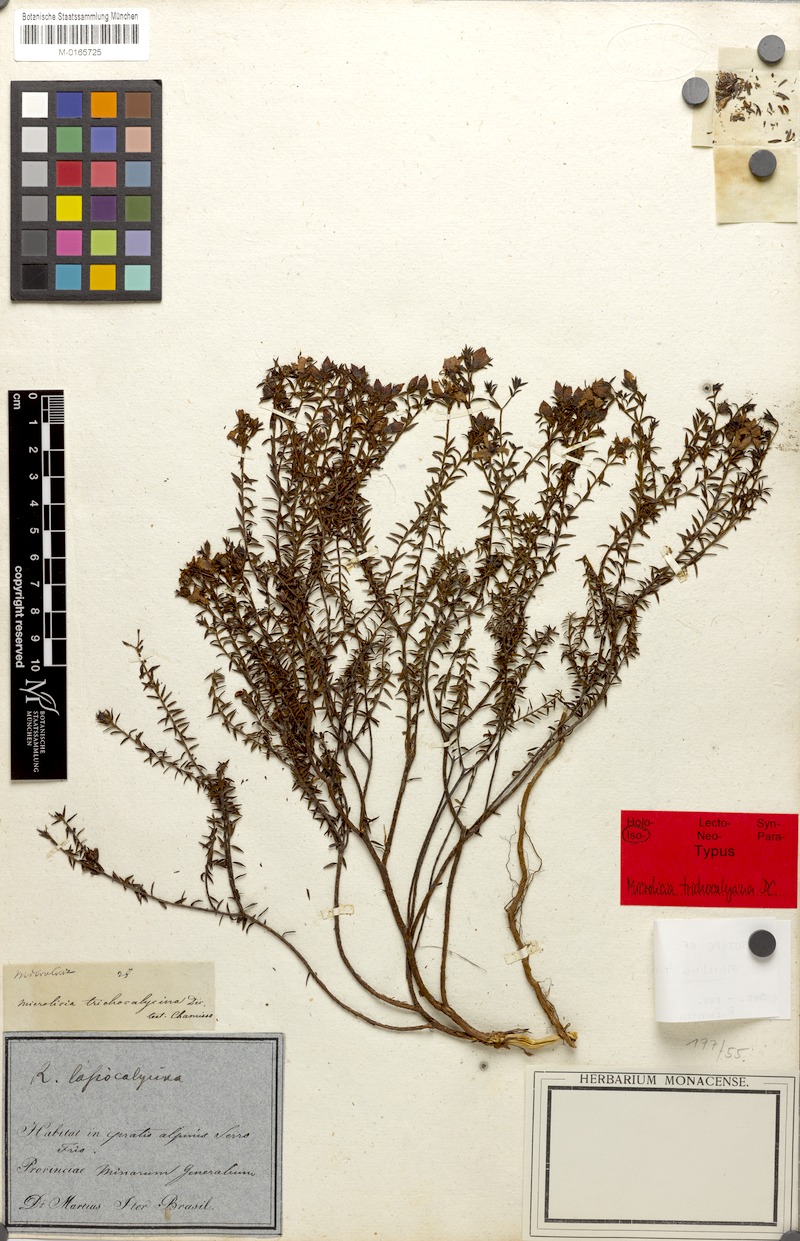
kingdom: Plantae
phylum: Tracheophyta
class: Magnoliopsida
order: Myrtales
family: Melastomataceae
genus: Microlicia
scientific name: Microlicia trichocalycina
